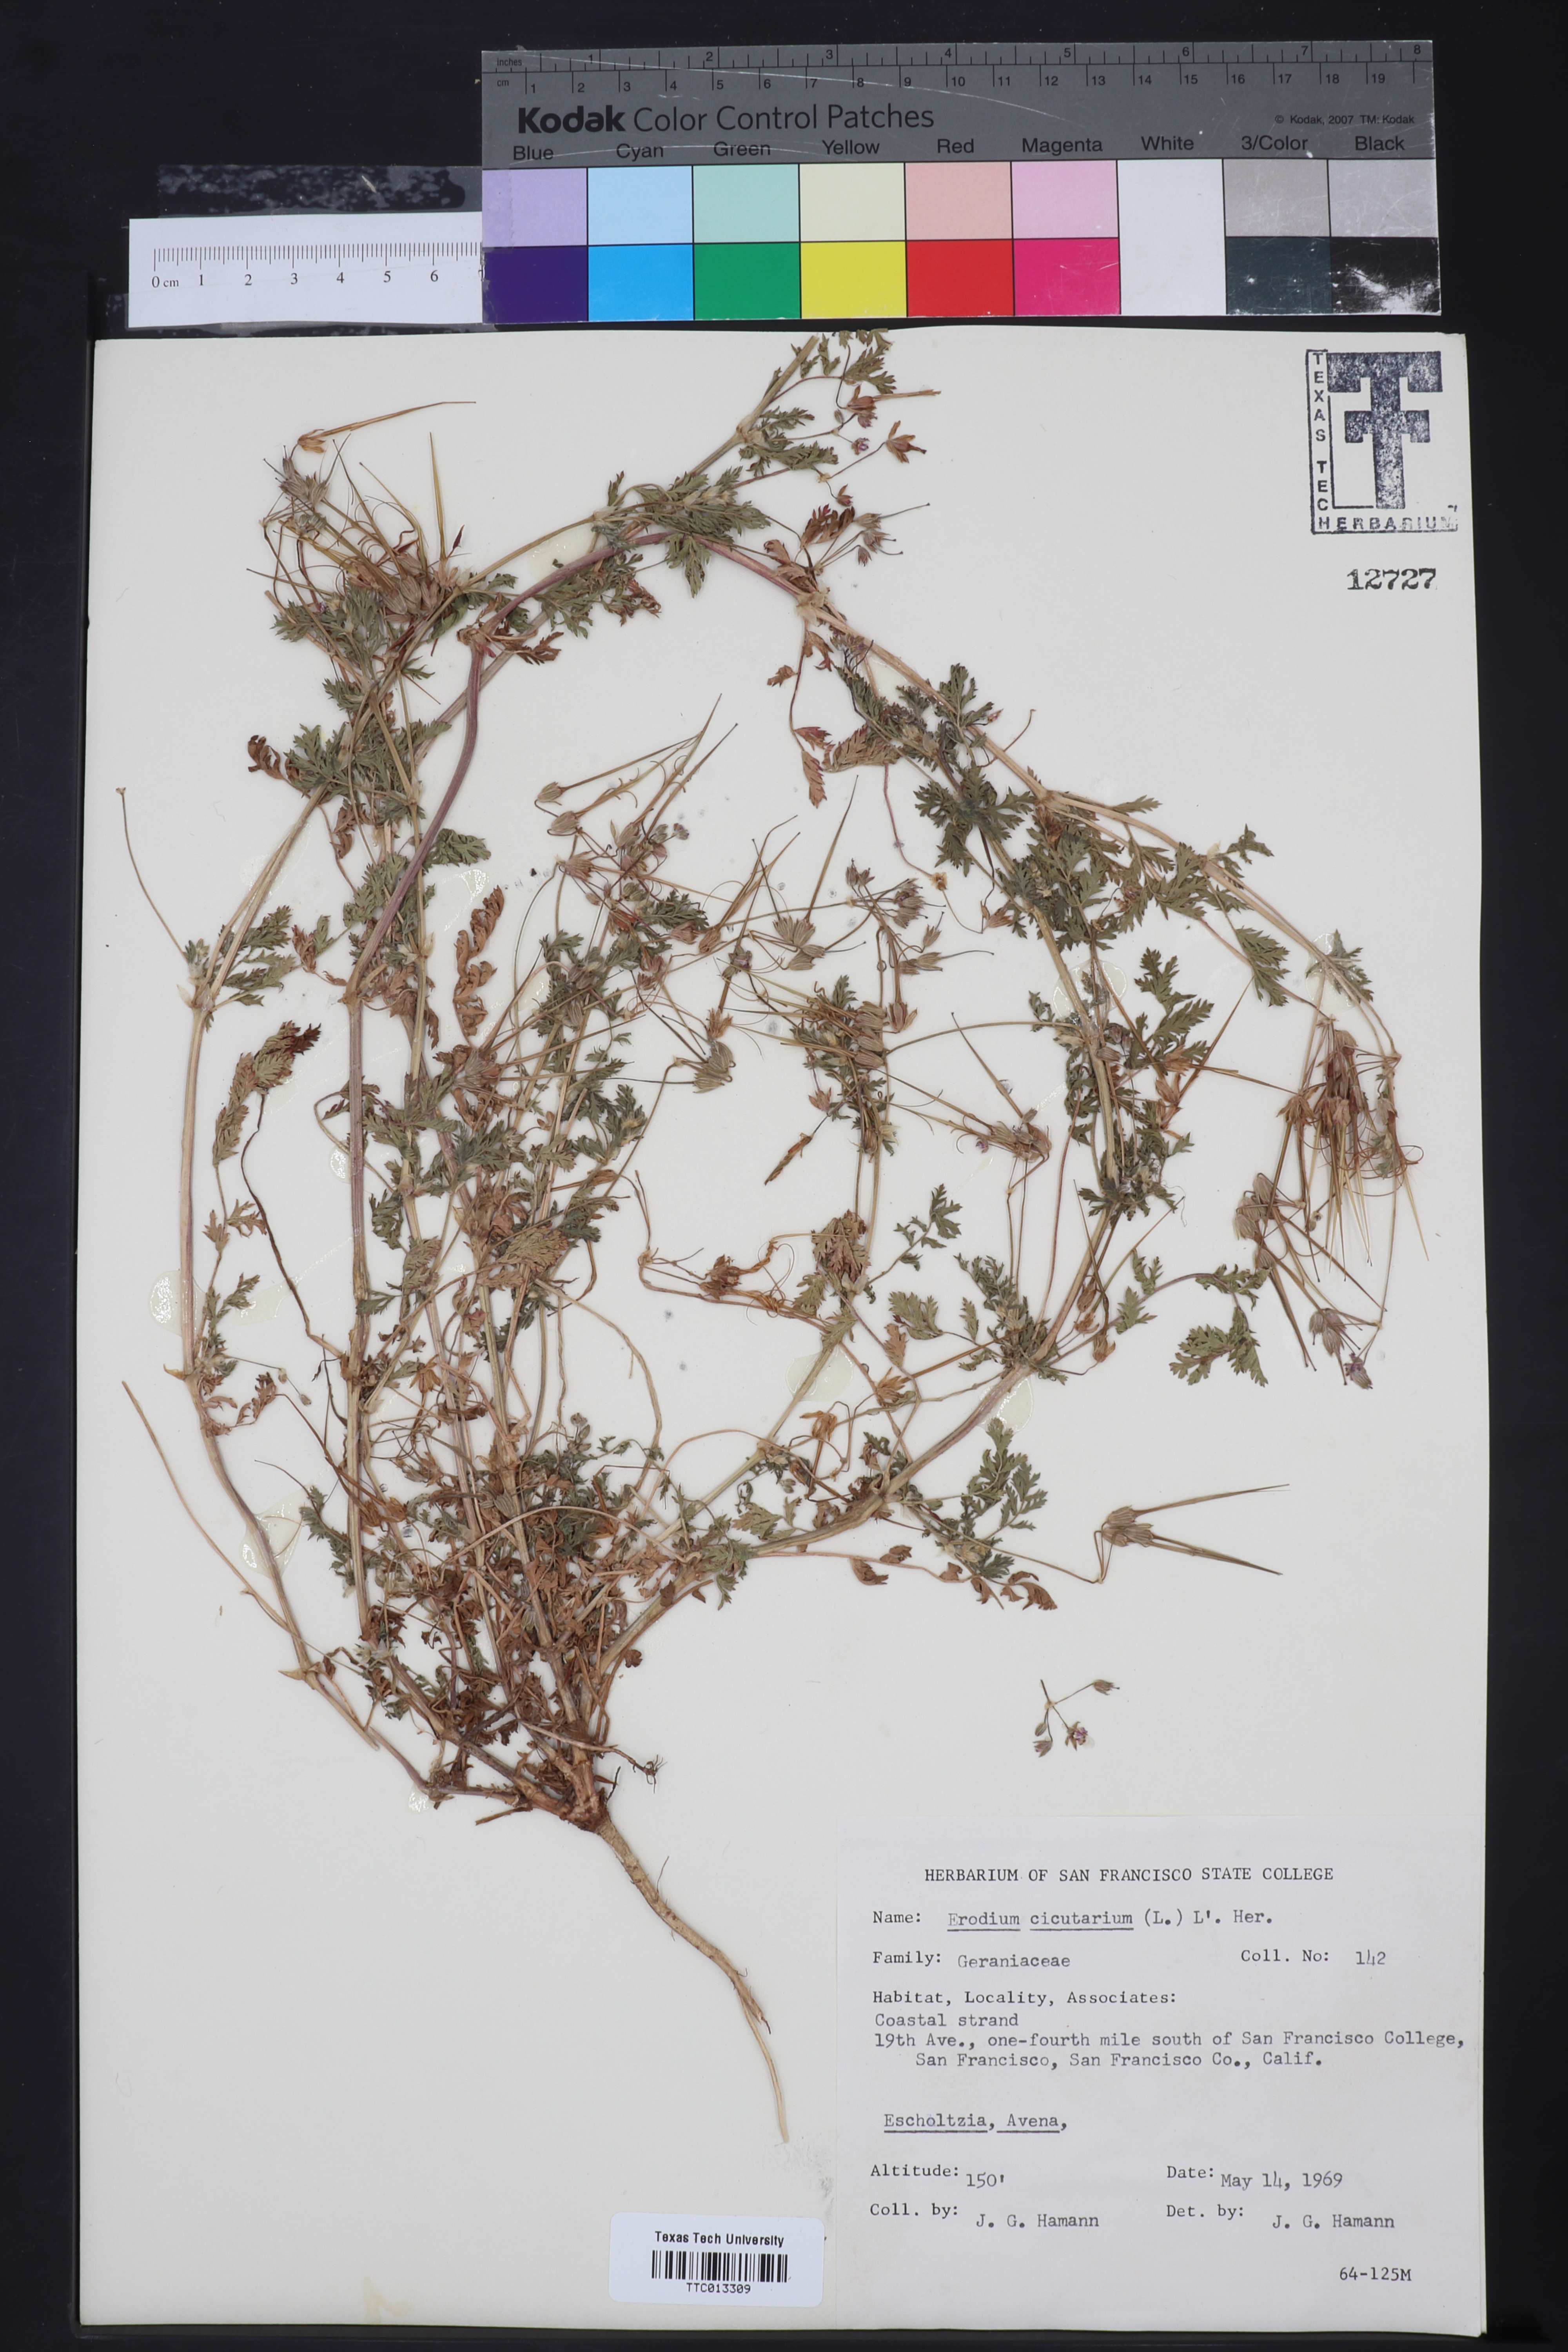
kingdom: Plantae
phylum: Tracheophyta
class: Magnoliopsida
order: Geraniales
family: Geraniaceae
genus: Erodium
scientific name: Erodium cicutarium
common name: Common stork's-bill
